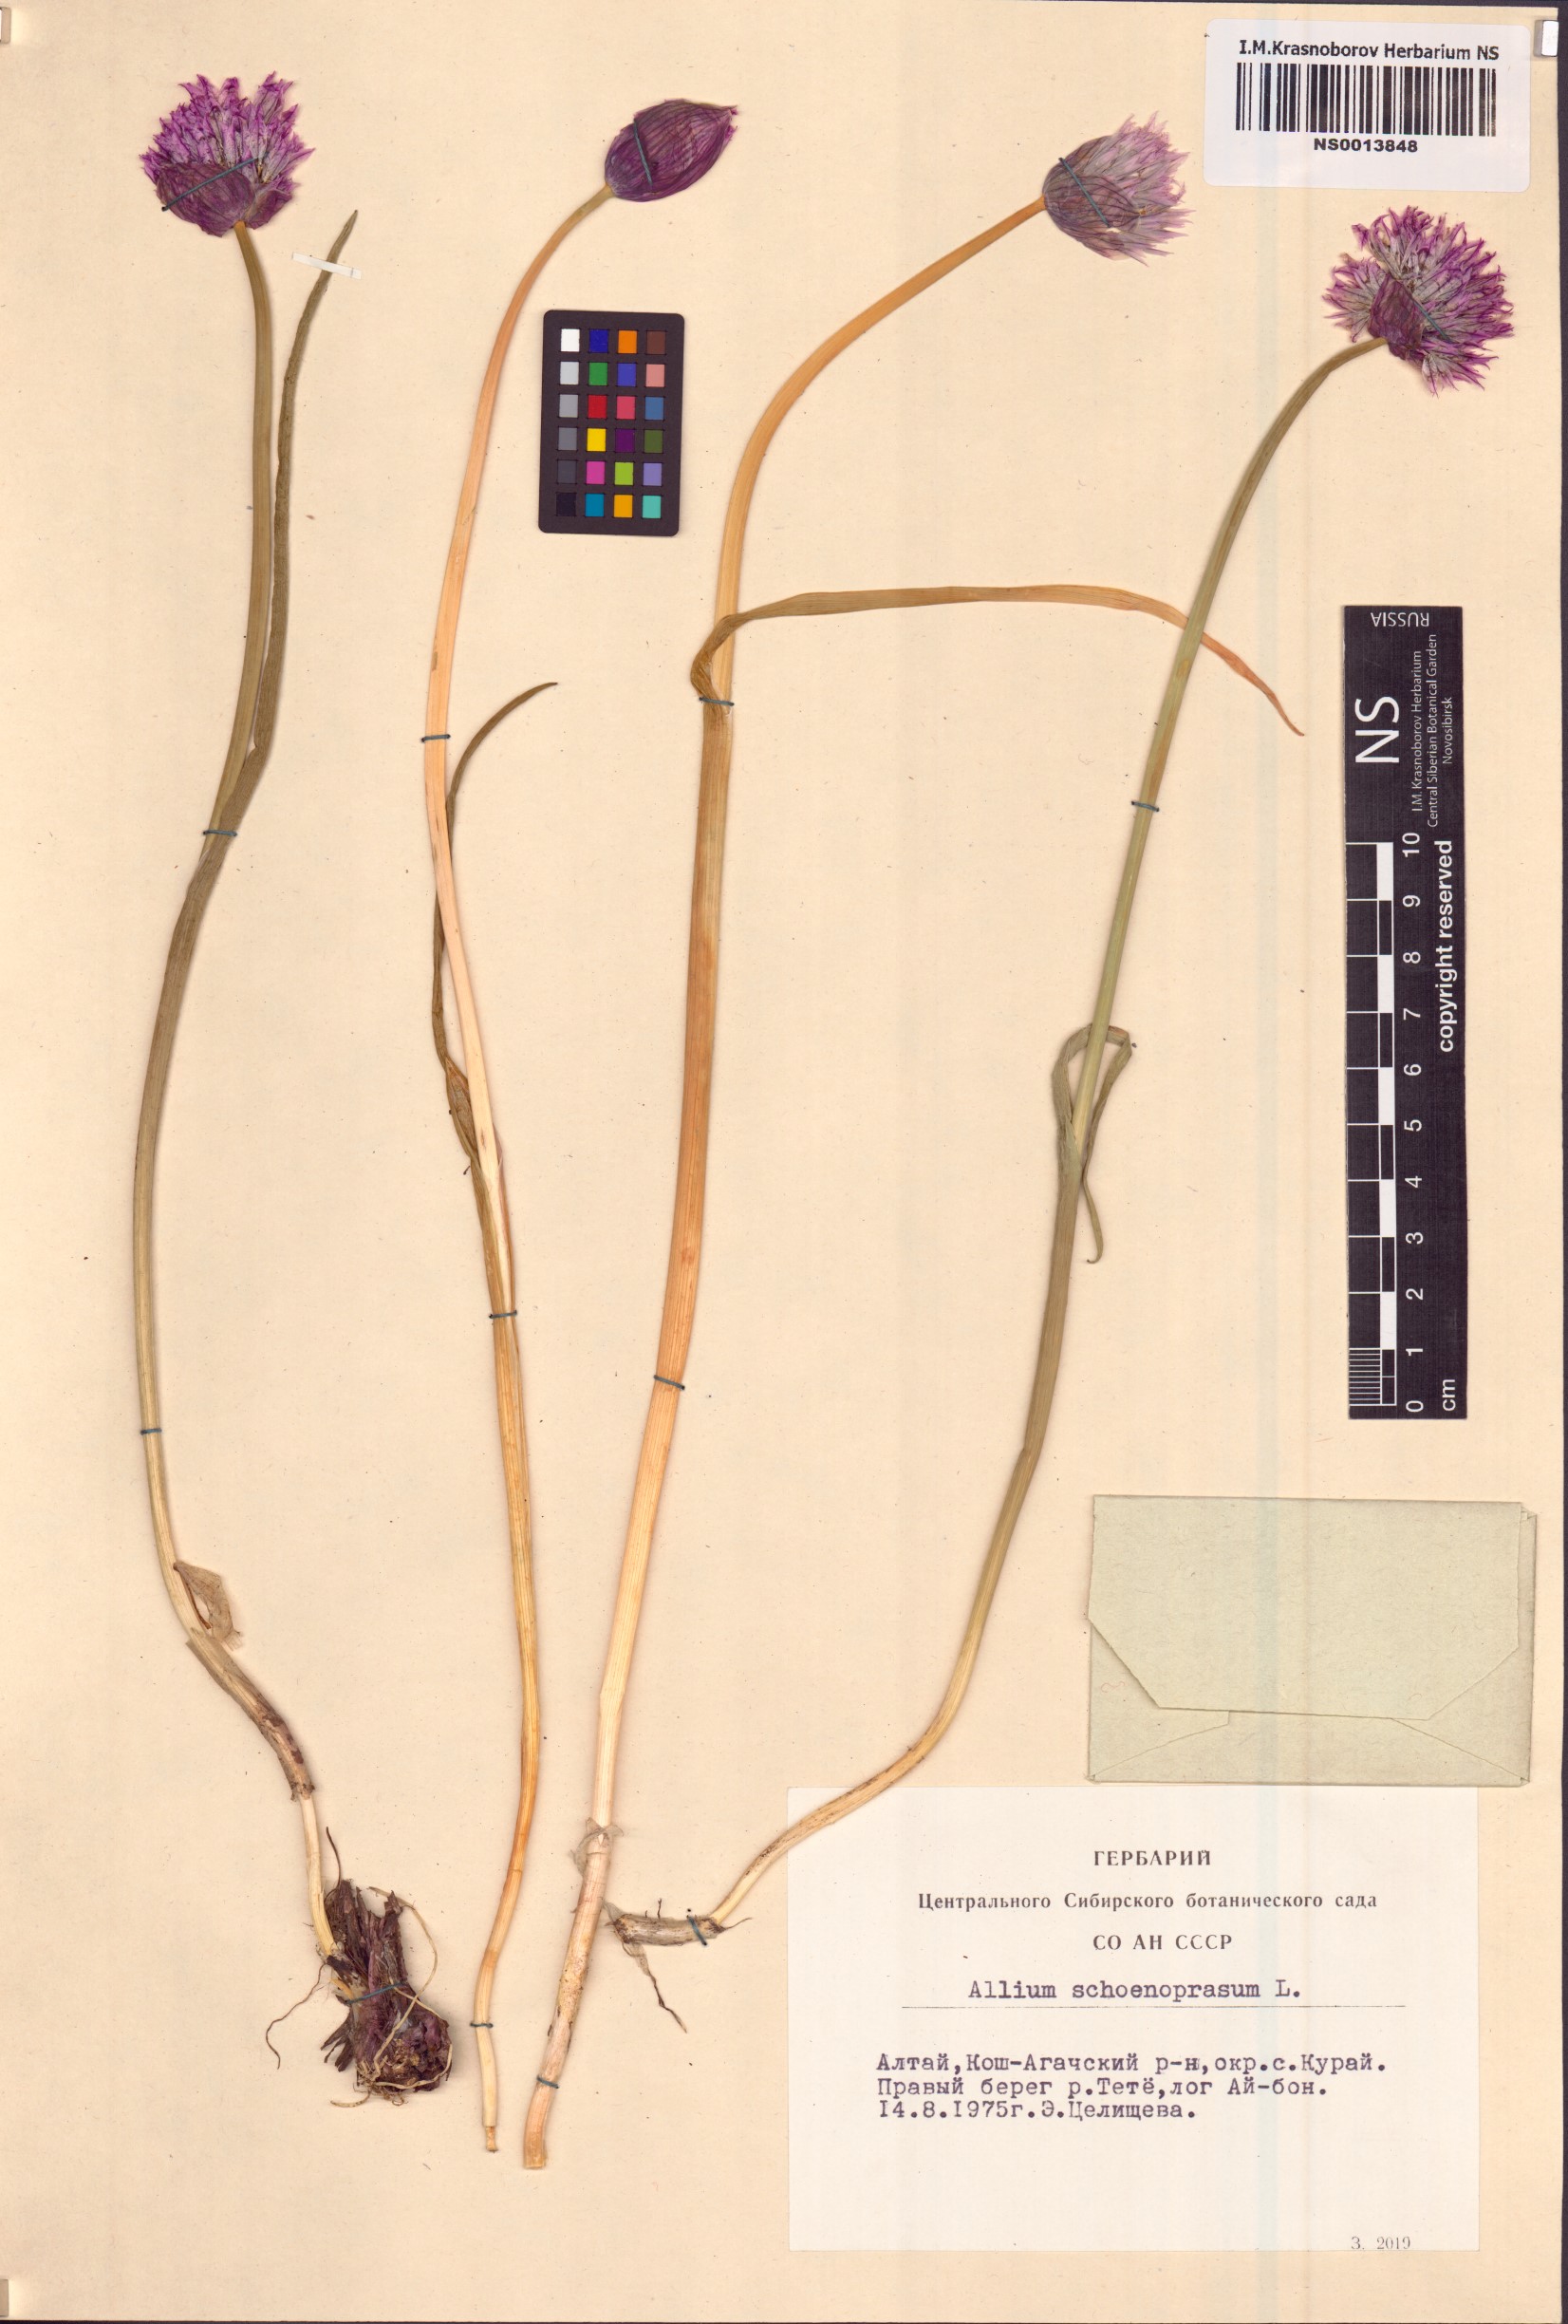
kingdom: Plantae
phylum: Tracheophyta
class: Liliopsida
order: Asparagales
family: Amaryllidaceae
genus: Allium
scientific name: Allium schoenoprasum
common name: Chives
